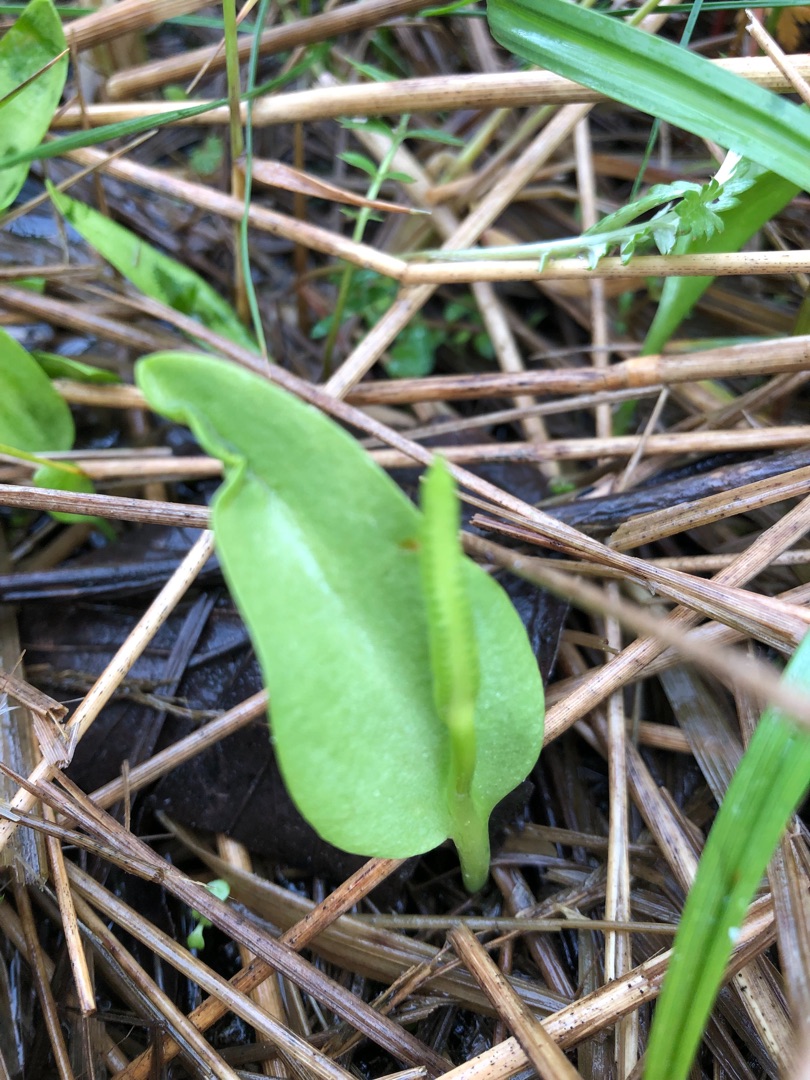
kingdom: Plantae
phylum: Tracheophyta
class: Polypodiopsida
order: Ophioglossales
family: Ophioglossaceae
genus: Ophioglossum
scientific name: Ophioglossum vulgatum
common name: Slangetunge
